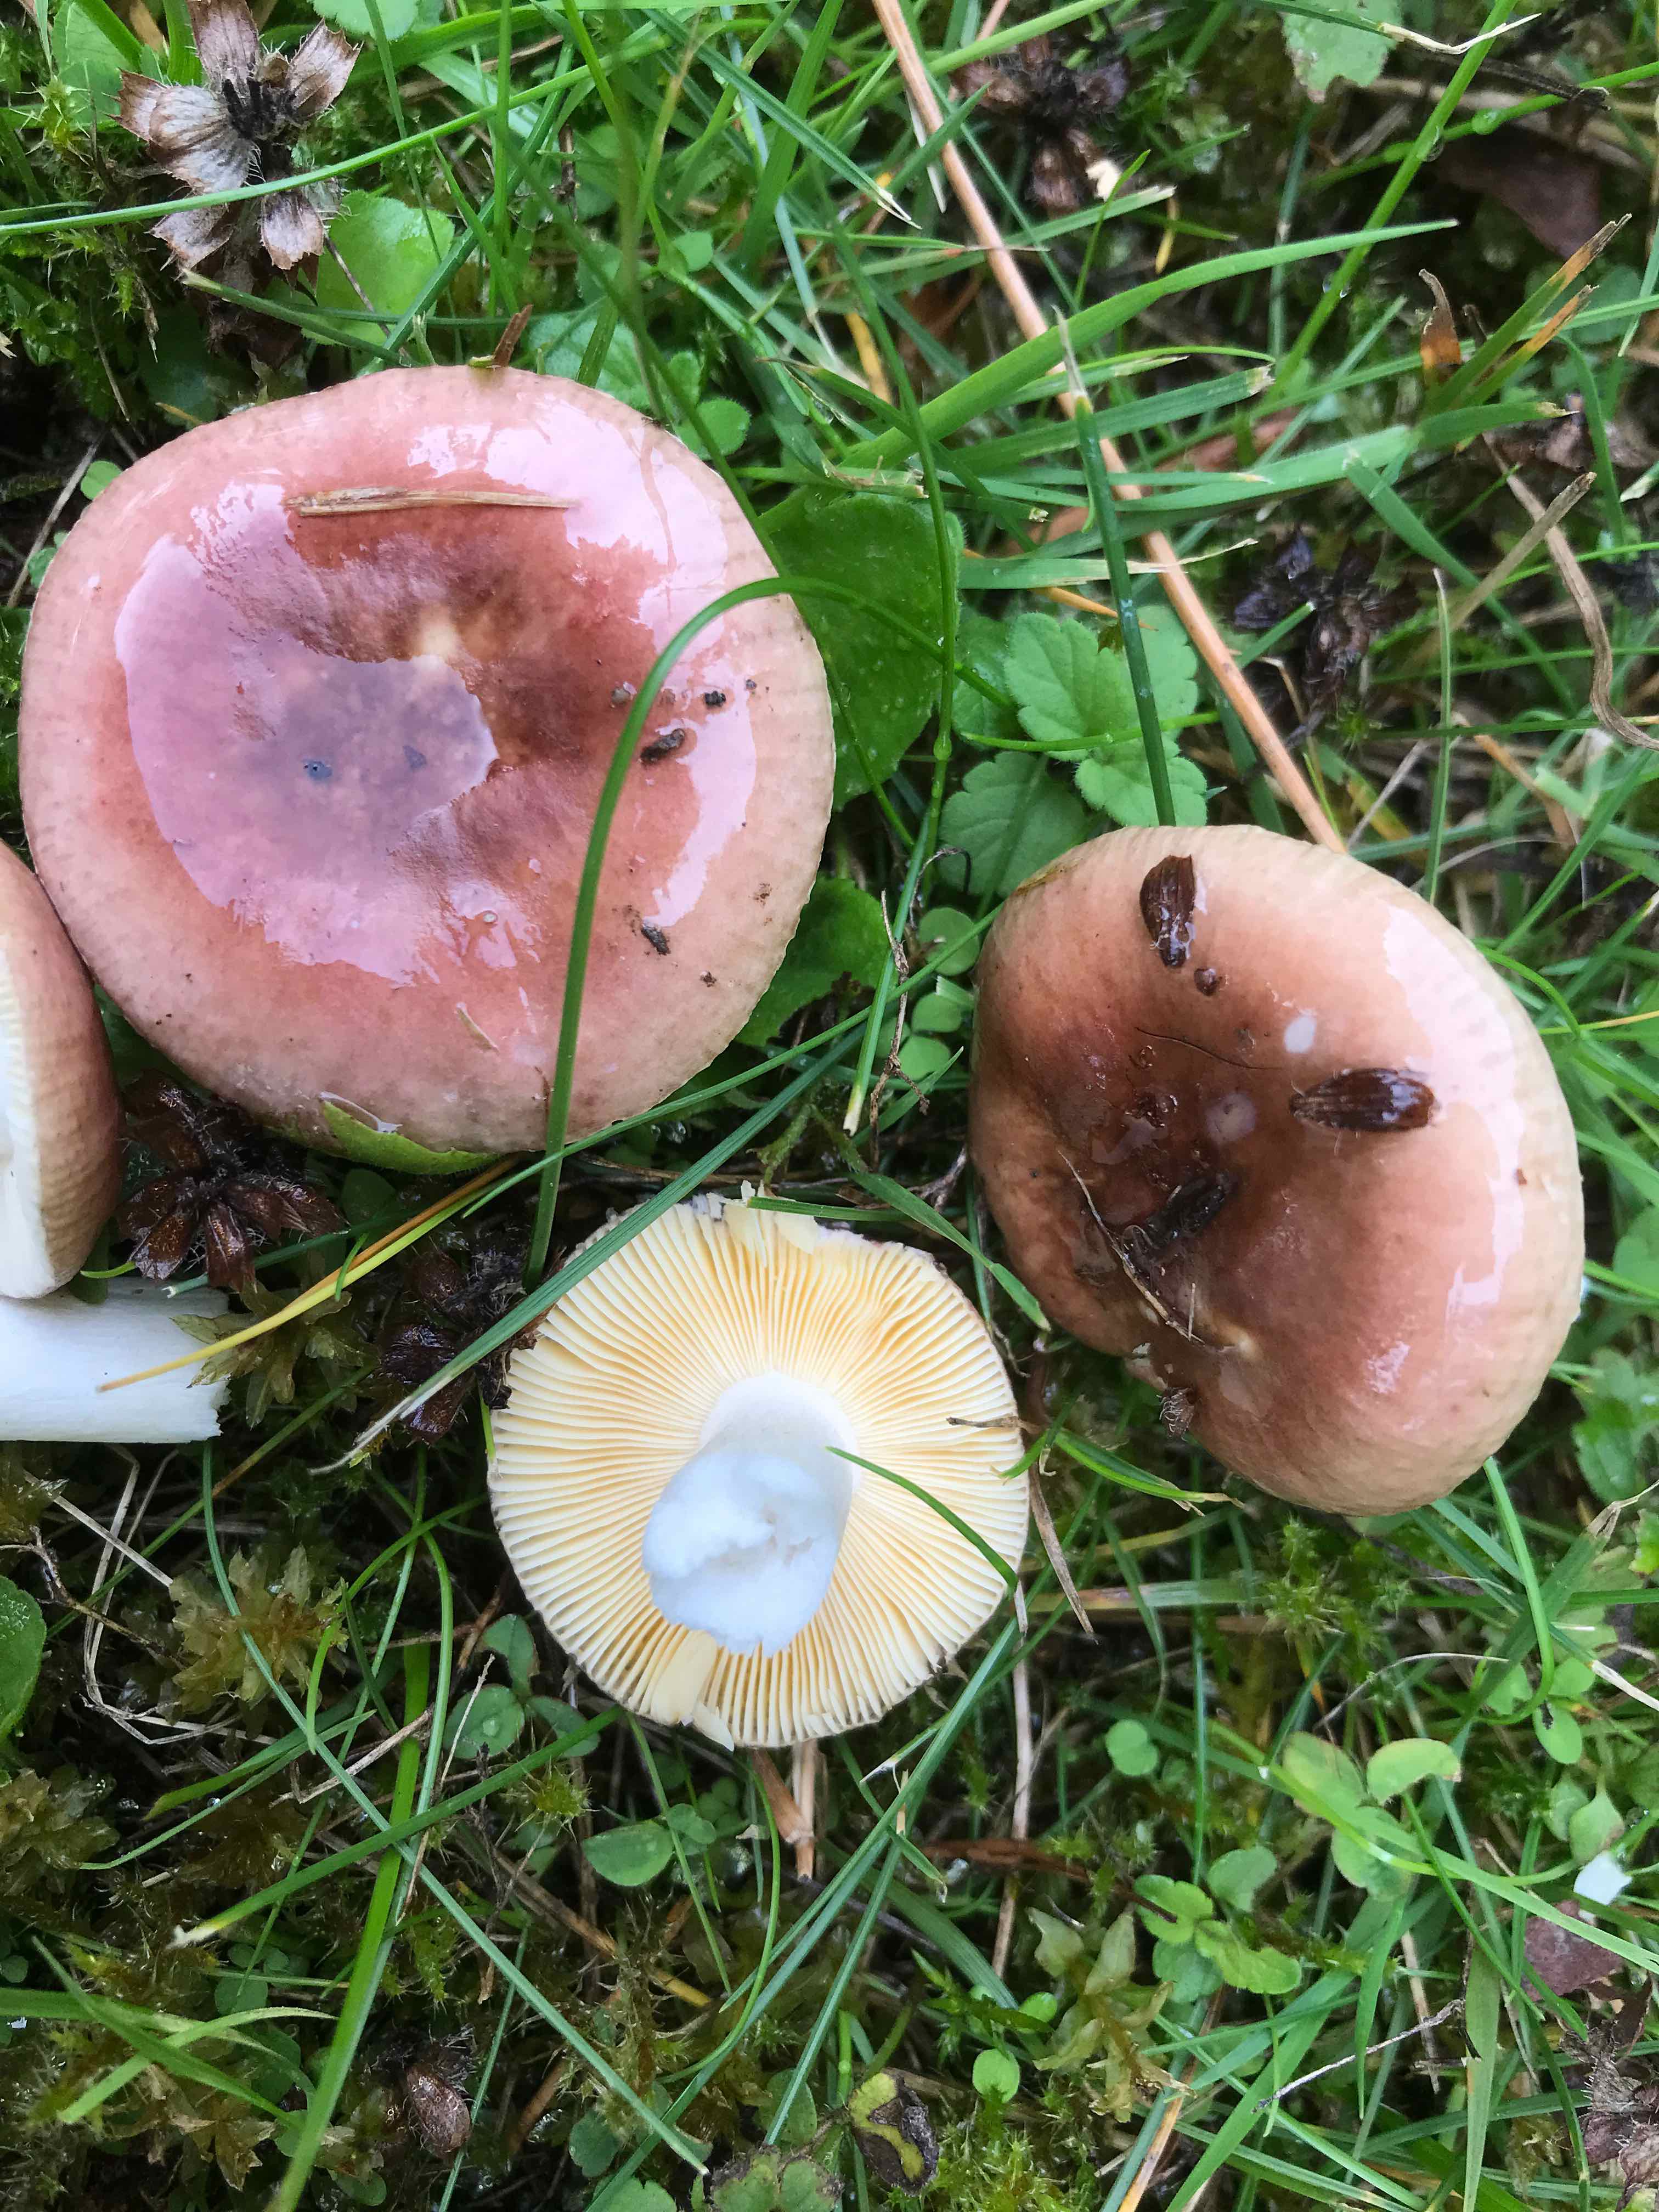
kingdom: Fungi
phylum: Basidiomycota
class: Agaricomycetes
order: Russulales
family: Russulaceae
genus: Russula
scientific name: Russula cessans
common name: fyrre-skørhat
